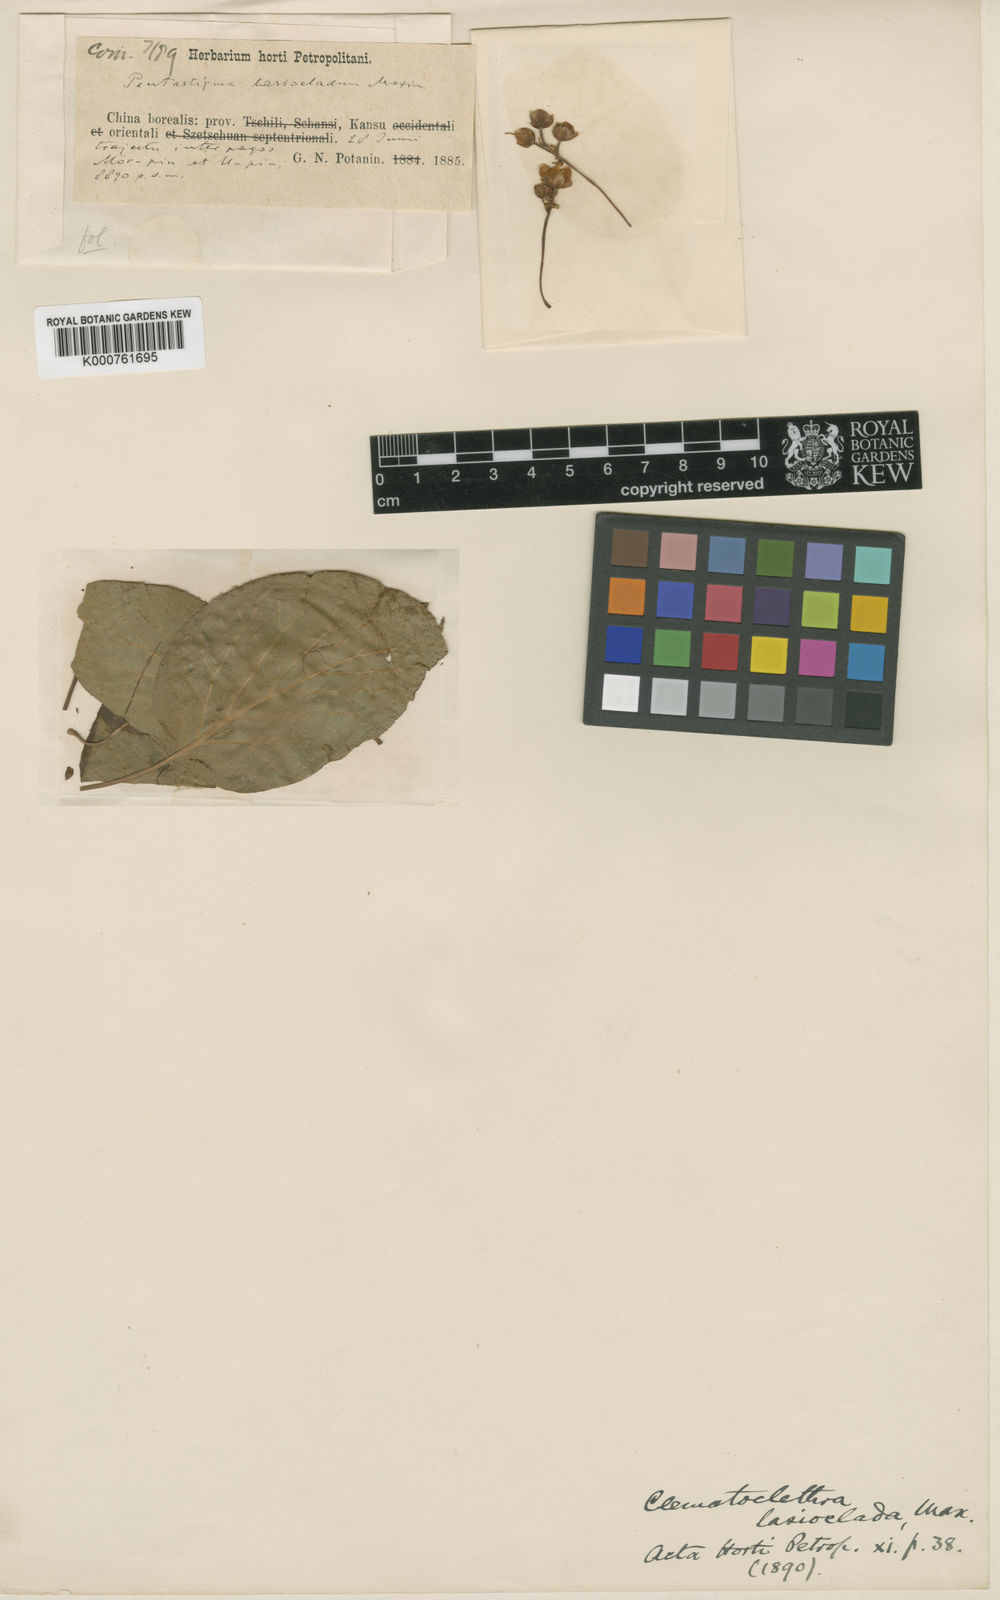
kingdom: Plantae
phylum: Tracheophyta
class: Magnoliopsida
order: Ericales
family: Actinidiaceae
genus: Clematoclethra
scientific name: Clematoclethra scandens
